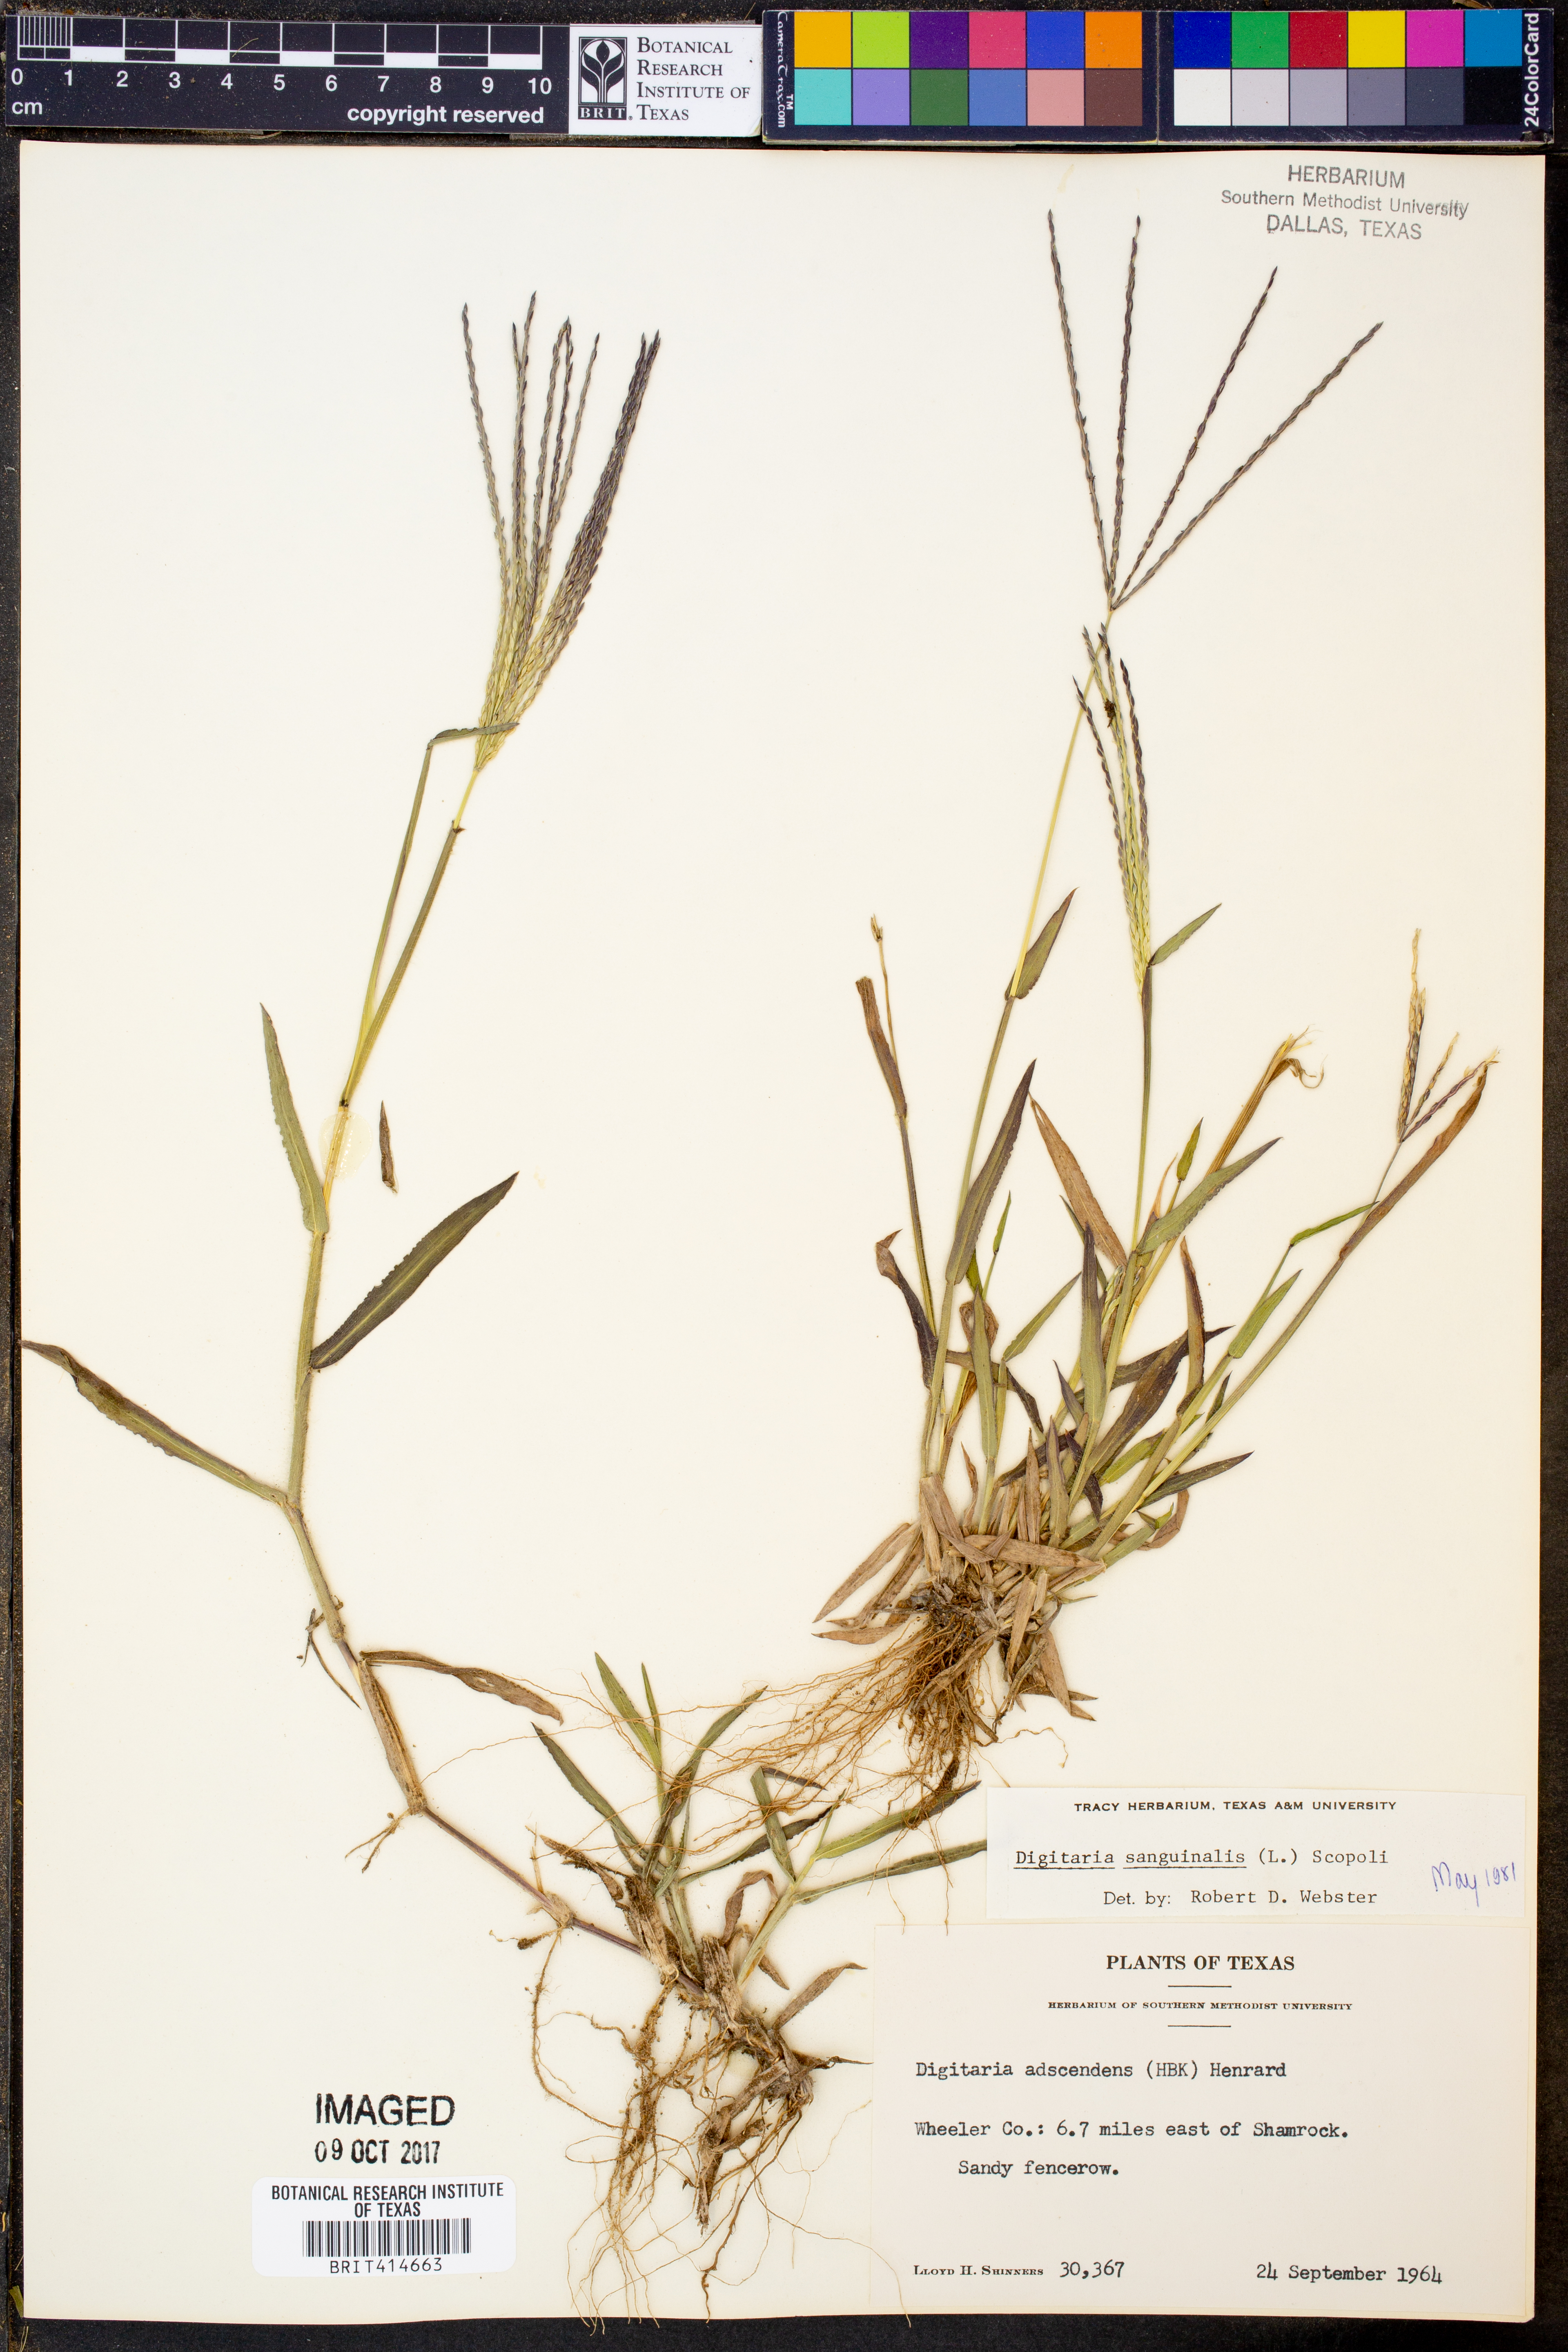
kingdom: Plantae
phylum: Tracheophyta
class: Liliopsida
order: Poales
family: Poaceae
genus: Digitaria
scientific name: Digitaria sanguinalis
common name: Hairy crabgrass
